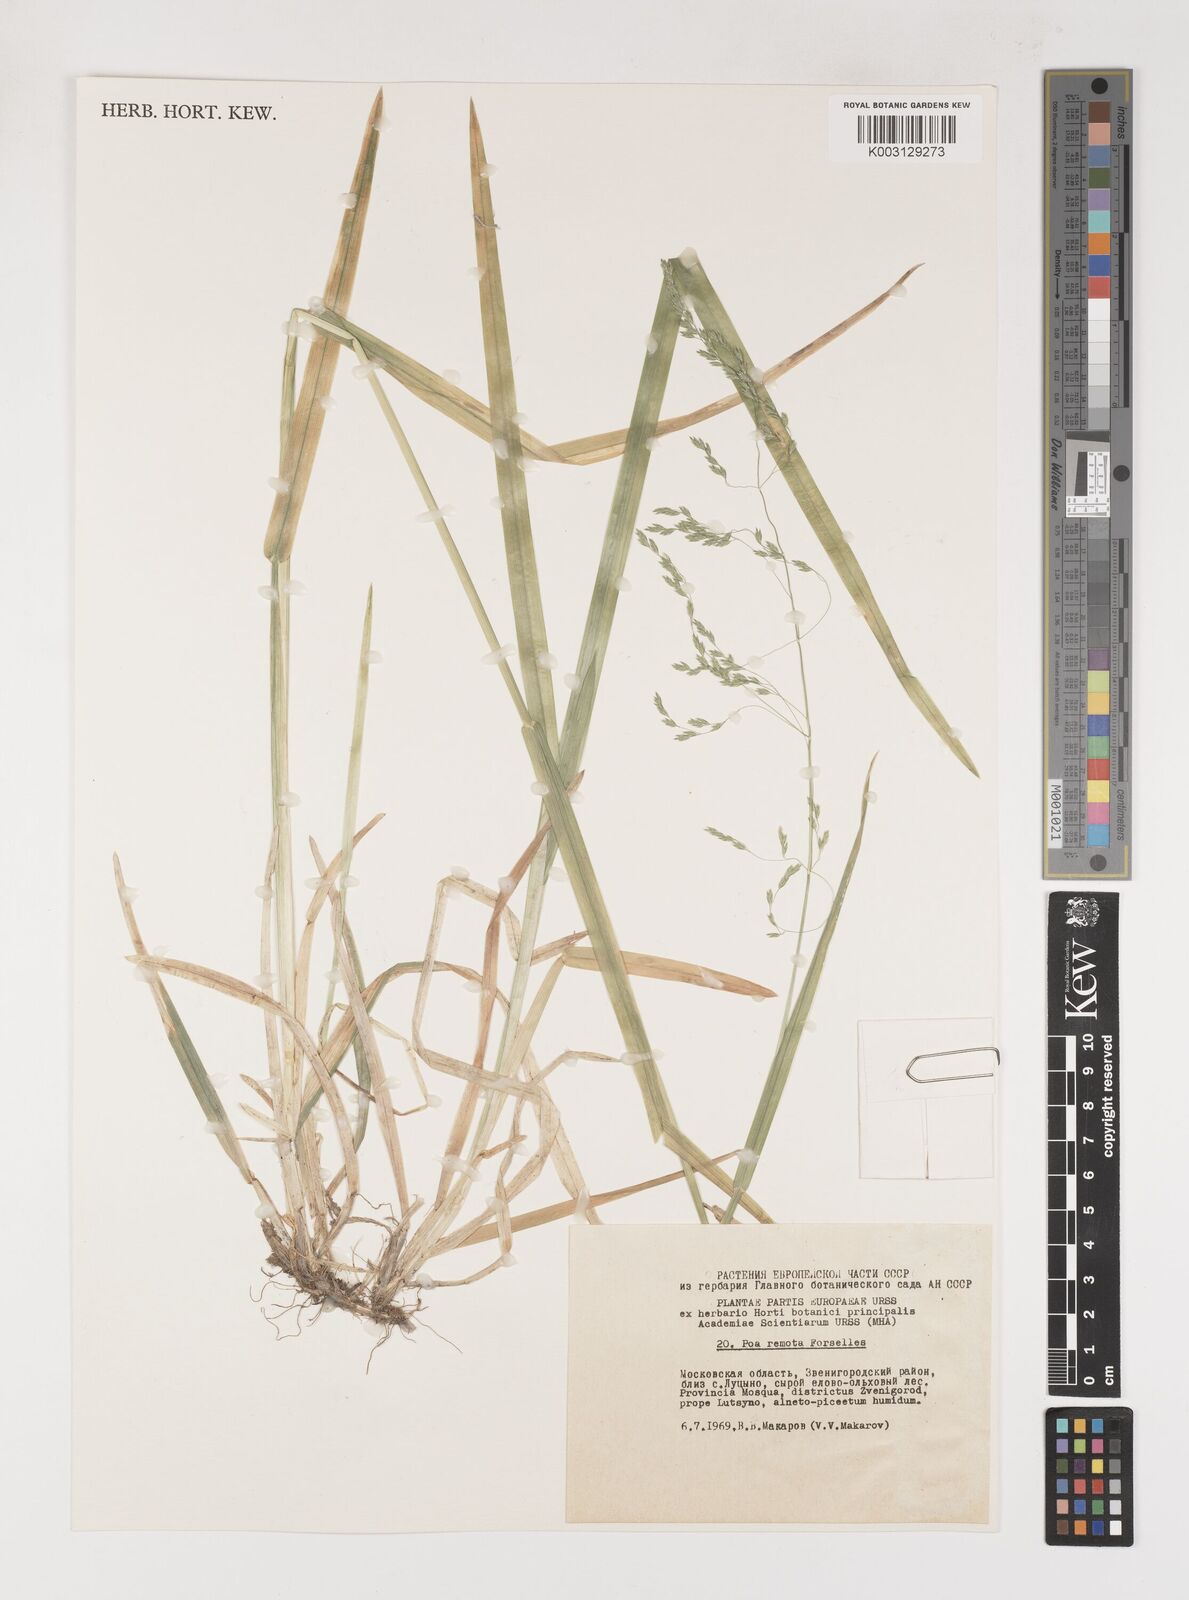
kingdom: Plantae
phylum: Tracheophyta
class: Liliopsida
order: Poales
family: Poaceae
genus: Poa
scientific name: Poa remota
